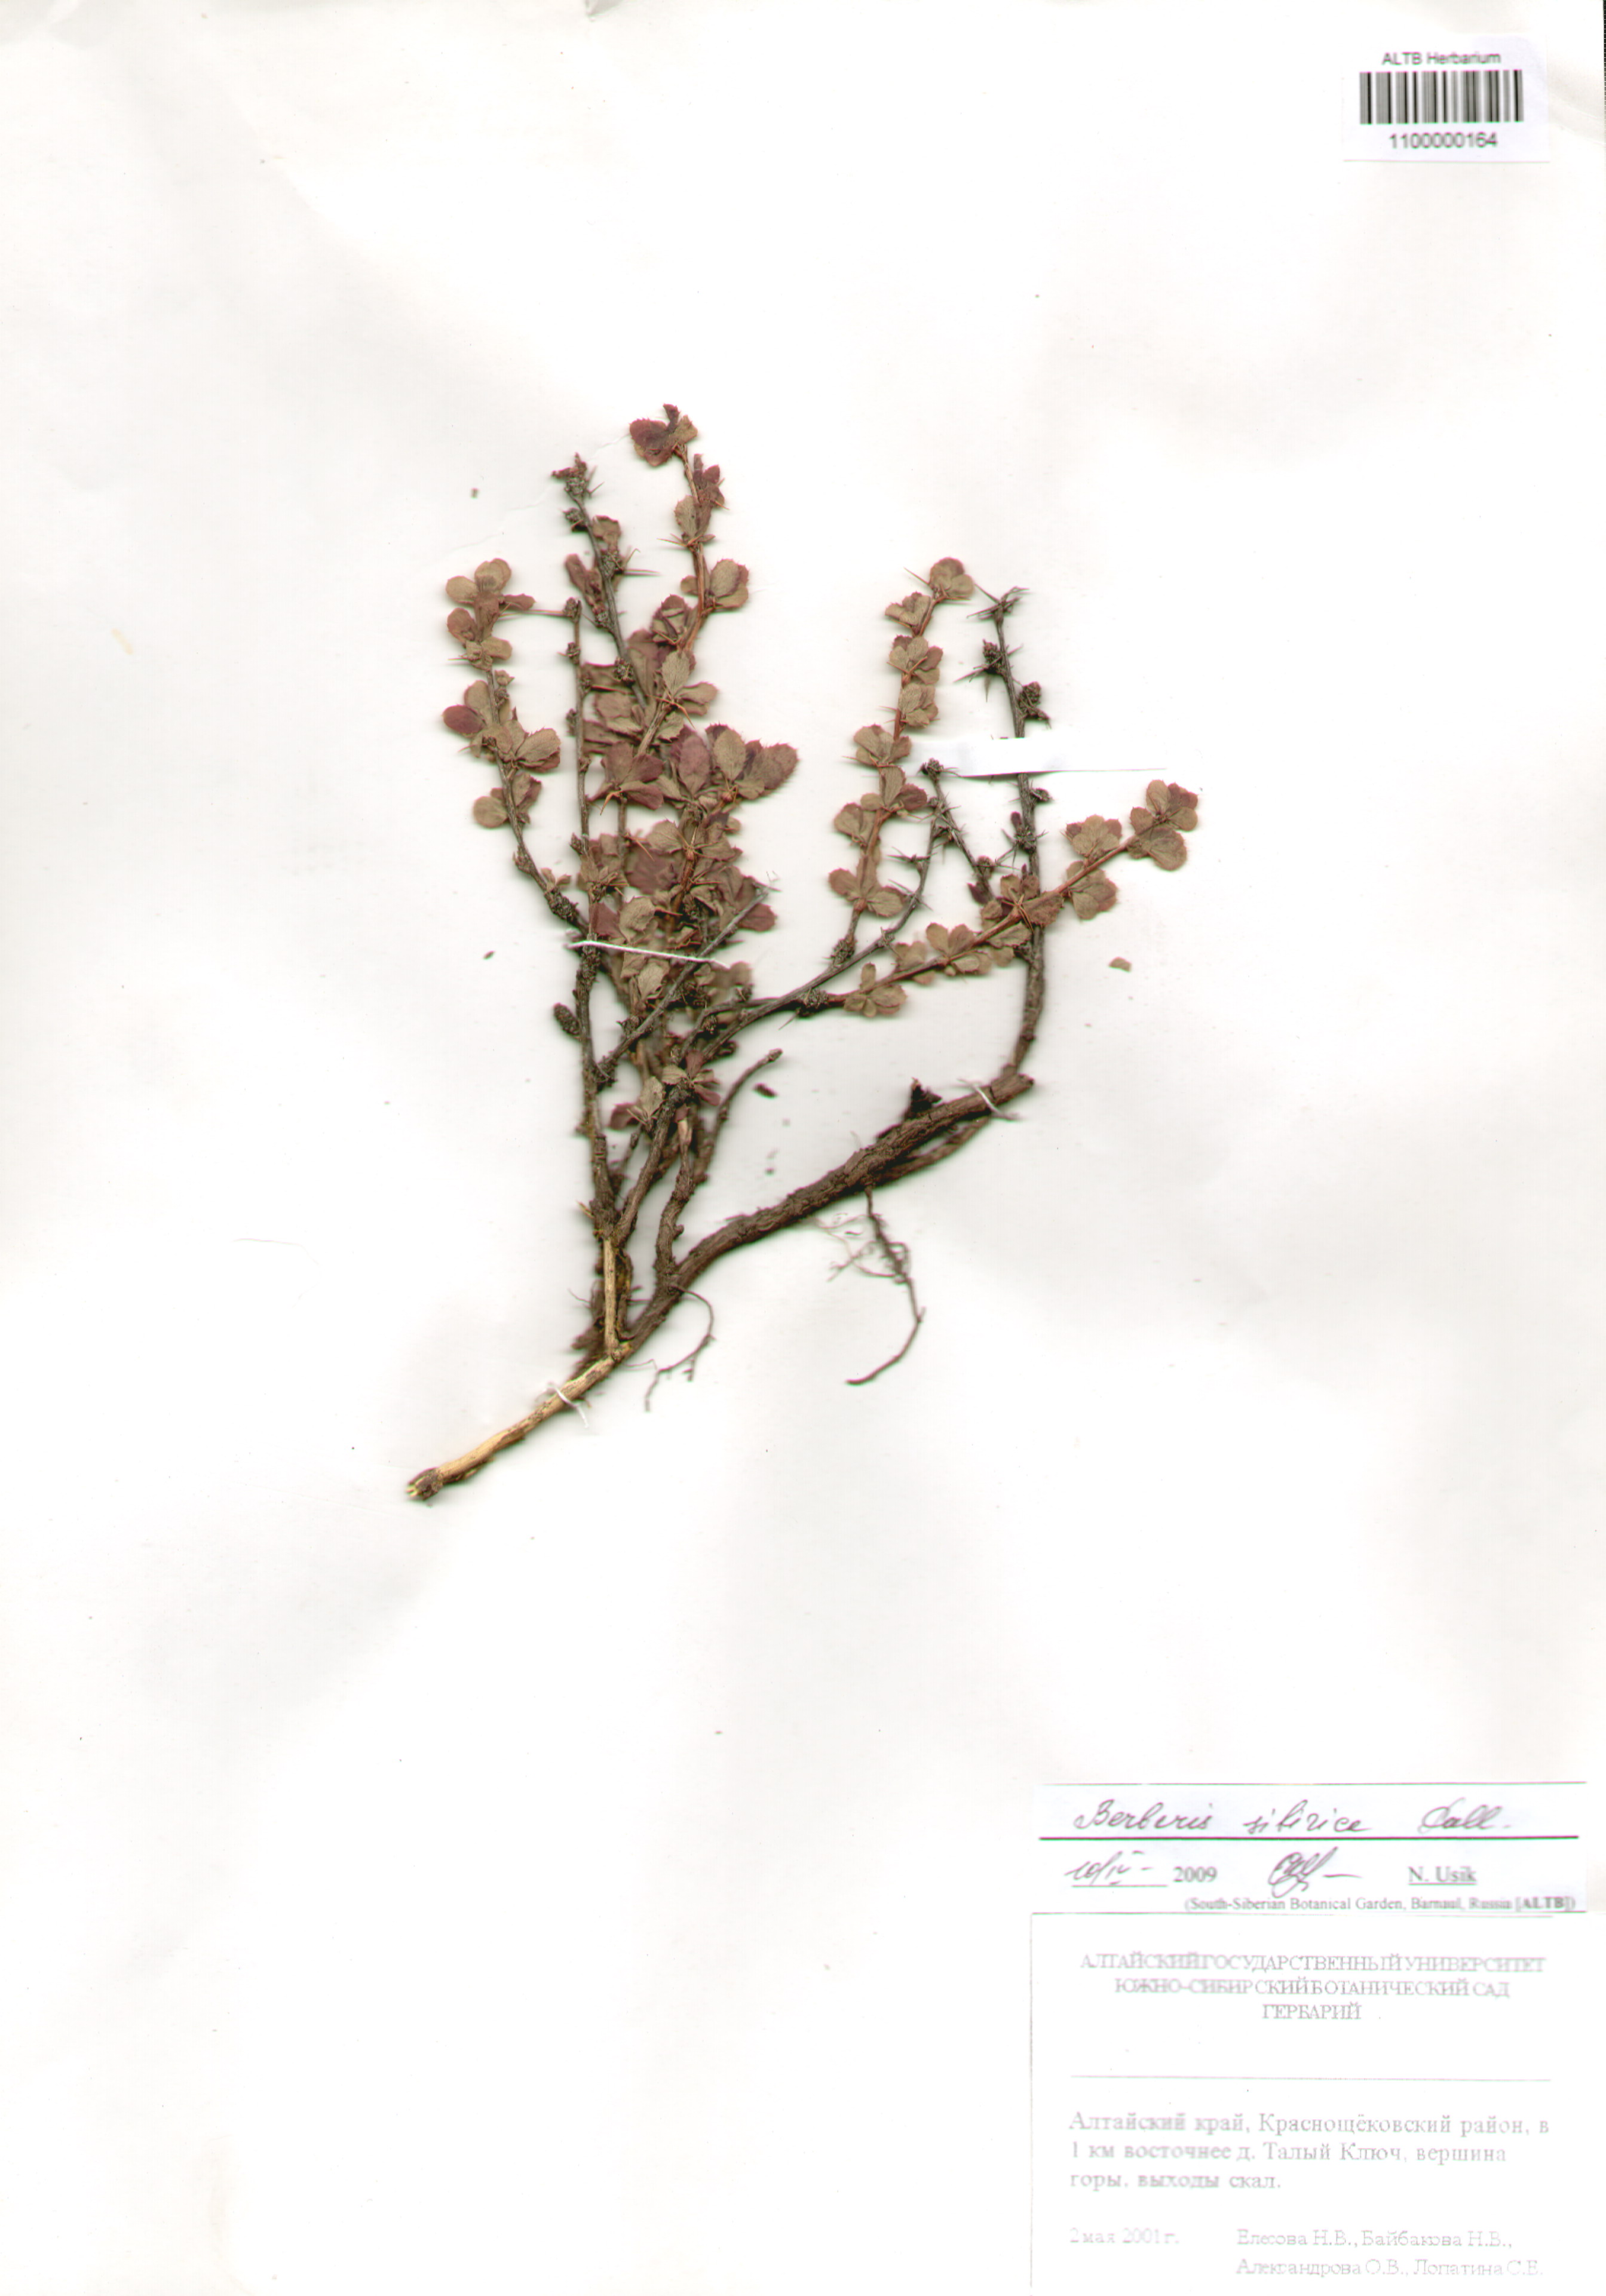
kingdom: Plantae
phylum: Tracheophyta
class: Magnoliopsida
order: Ranunculales
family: Berberidaceae
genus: Berberis
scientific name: Berberis sibirica
